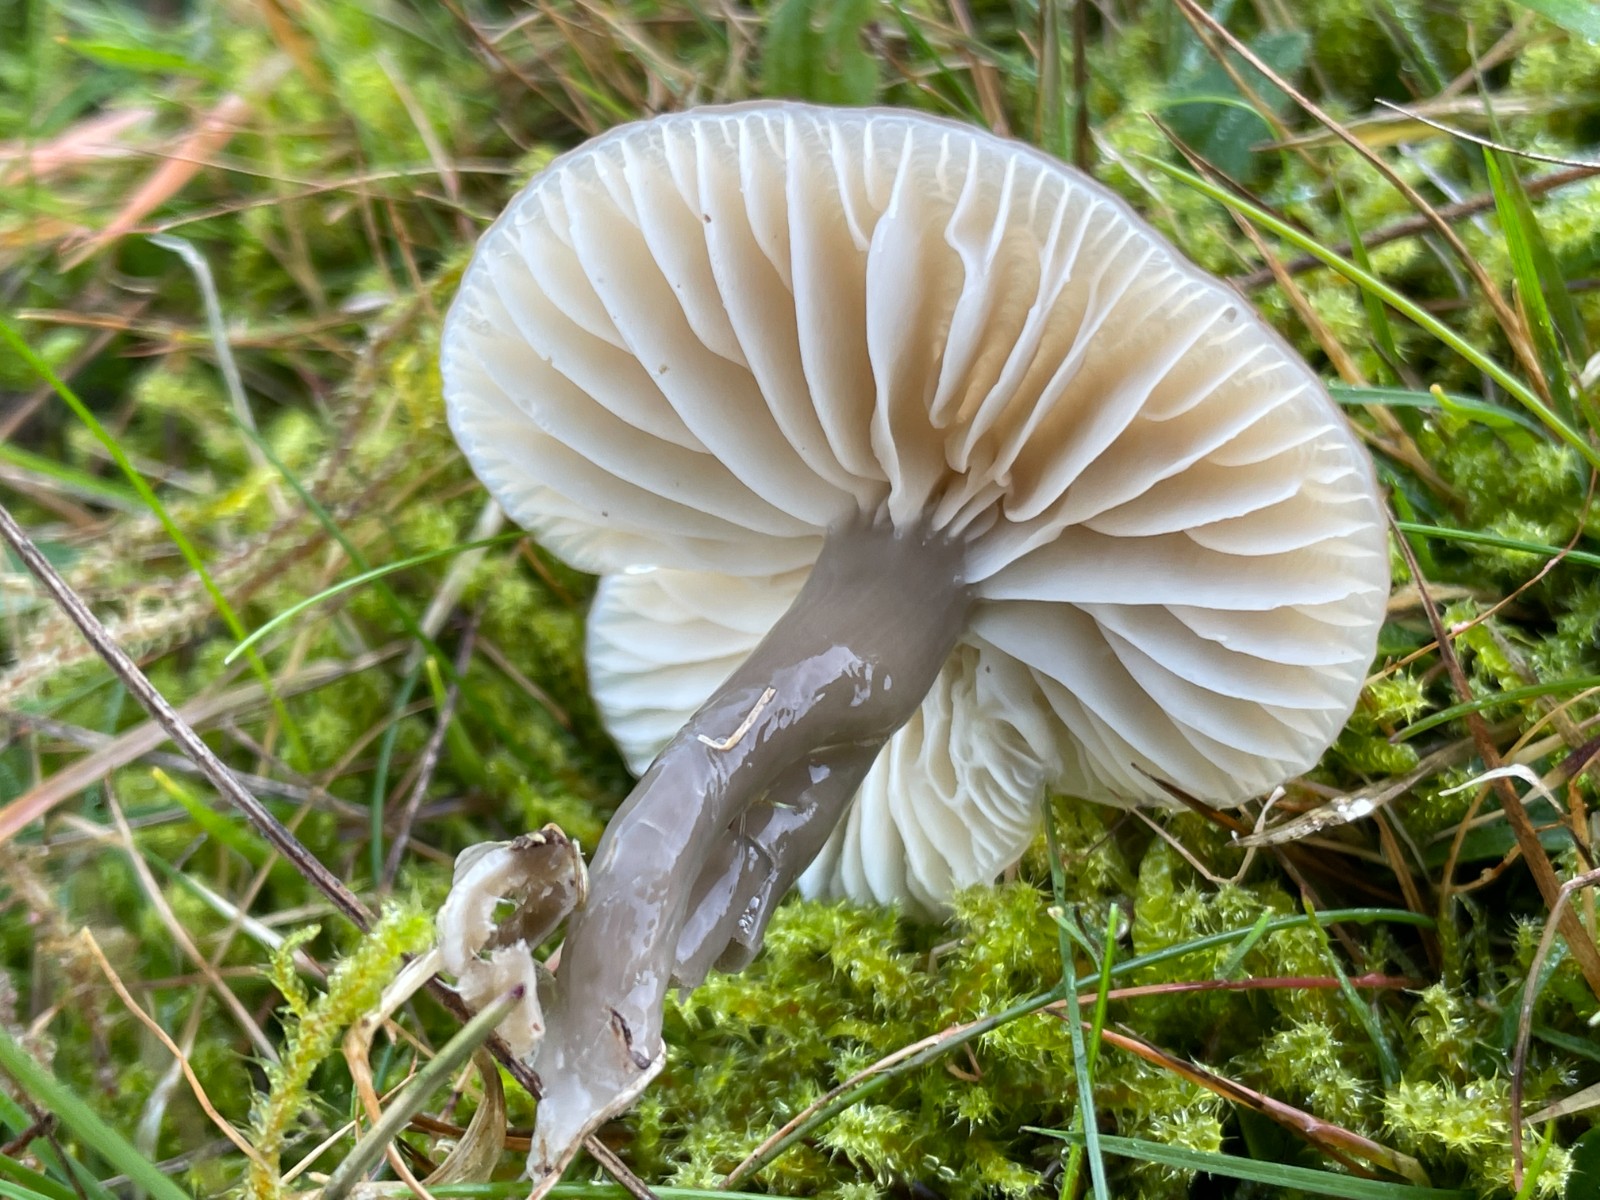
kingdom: Fungi
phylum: Basidiomycota
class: Agaricomycetes
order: Agaricales
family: Hygrophoraceae
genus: Gliophorus
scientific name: Gliophorus irrigatus
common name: slimet vokshat
